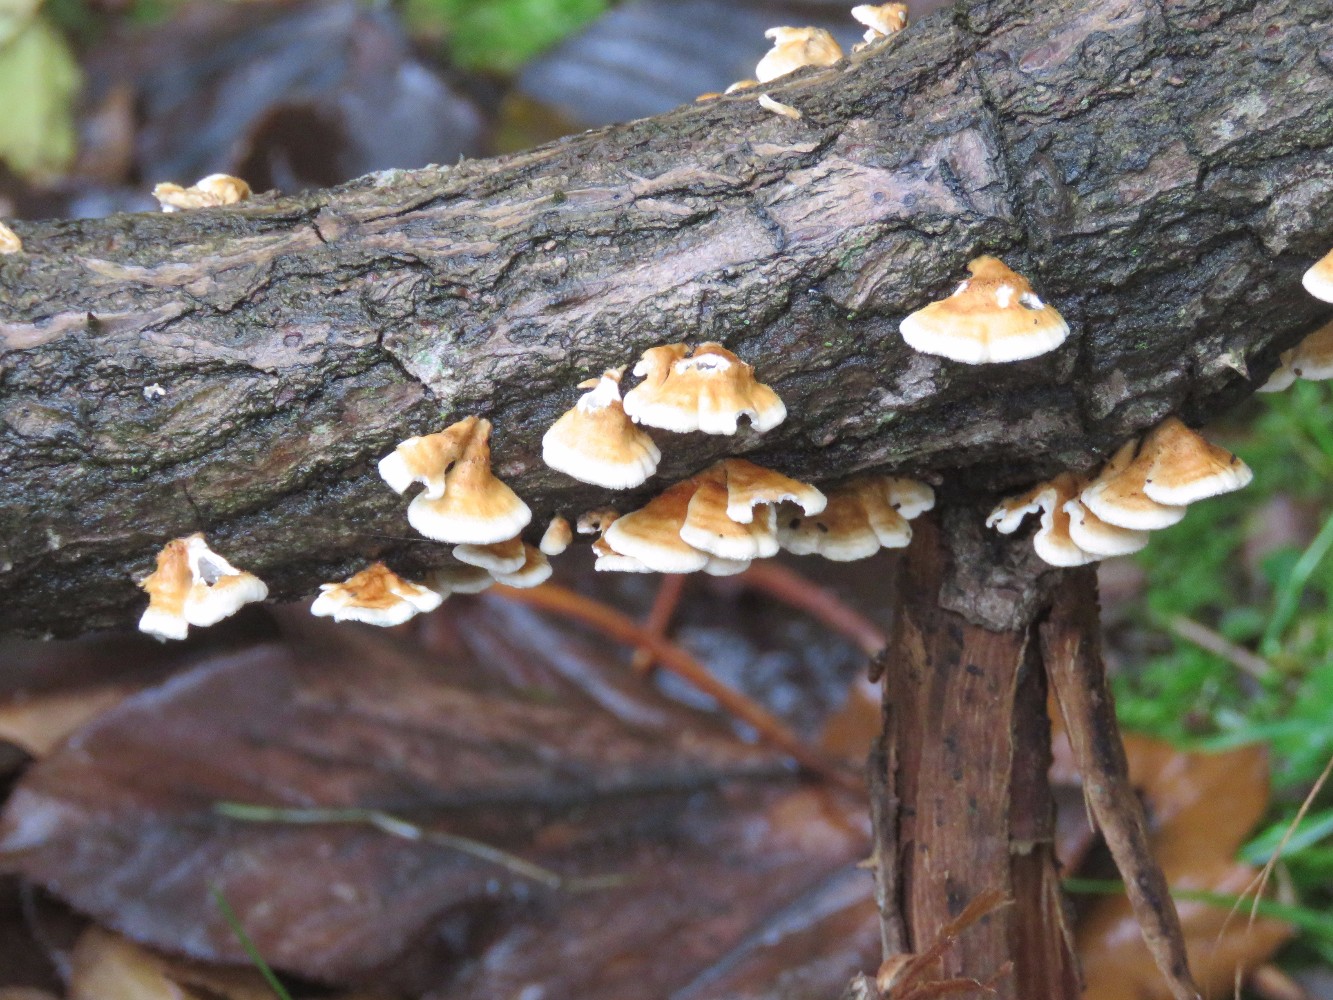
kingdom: Fungi
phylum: Basidiomycota
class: Agaricomycetes
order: Amylocorticiales
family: Amylocorticiaceae
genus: Plicaturopsis
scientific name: Plicaturopsis crispa
